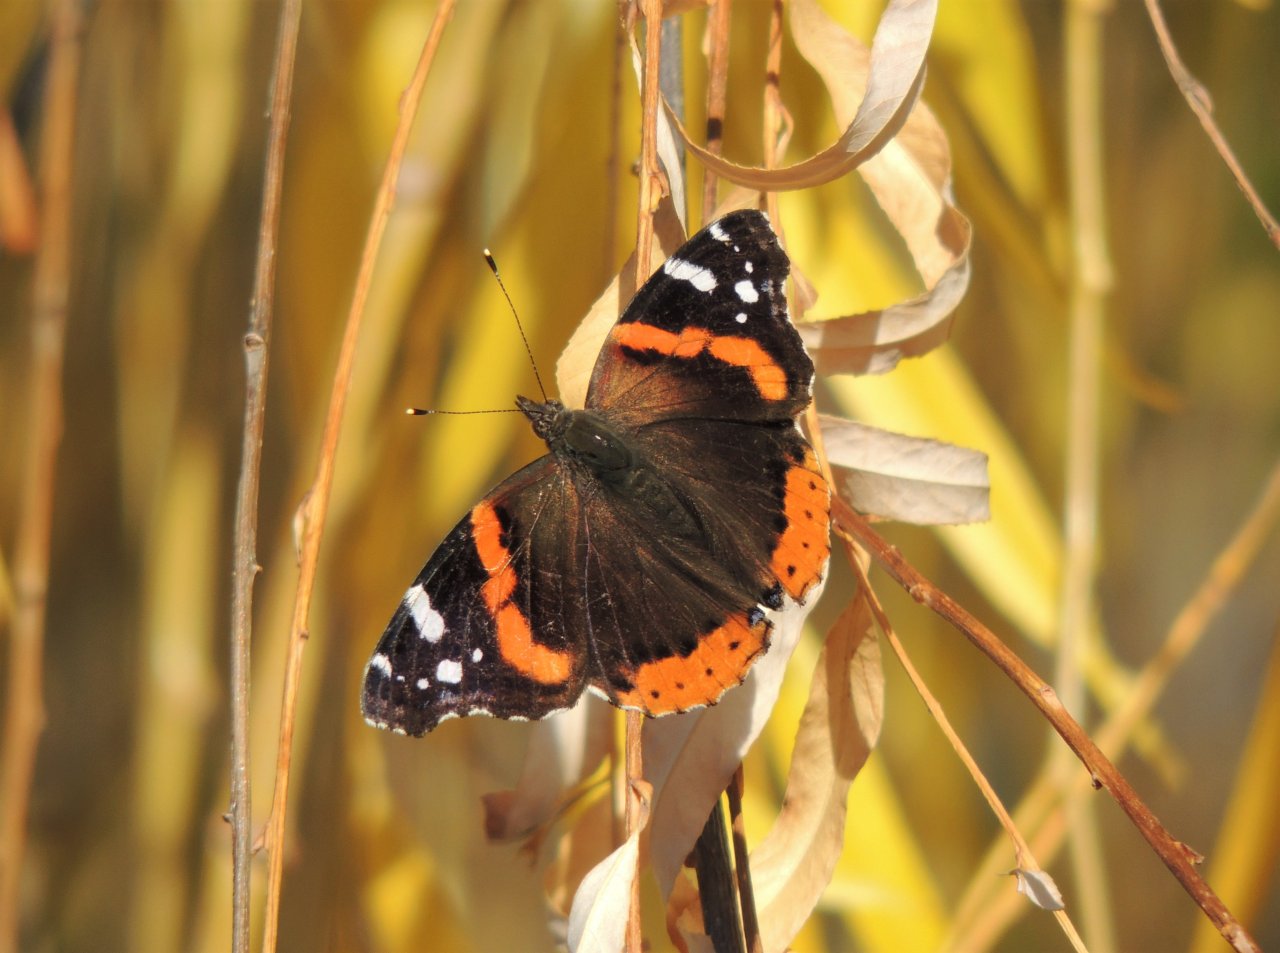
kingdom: Animalia
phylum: Arthropoda
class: Insecta
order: Lepidoptera
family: Nymphalidae
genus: Vanessa
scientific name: Vanessa atalanta
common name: Red Admiral
